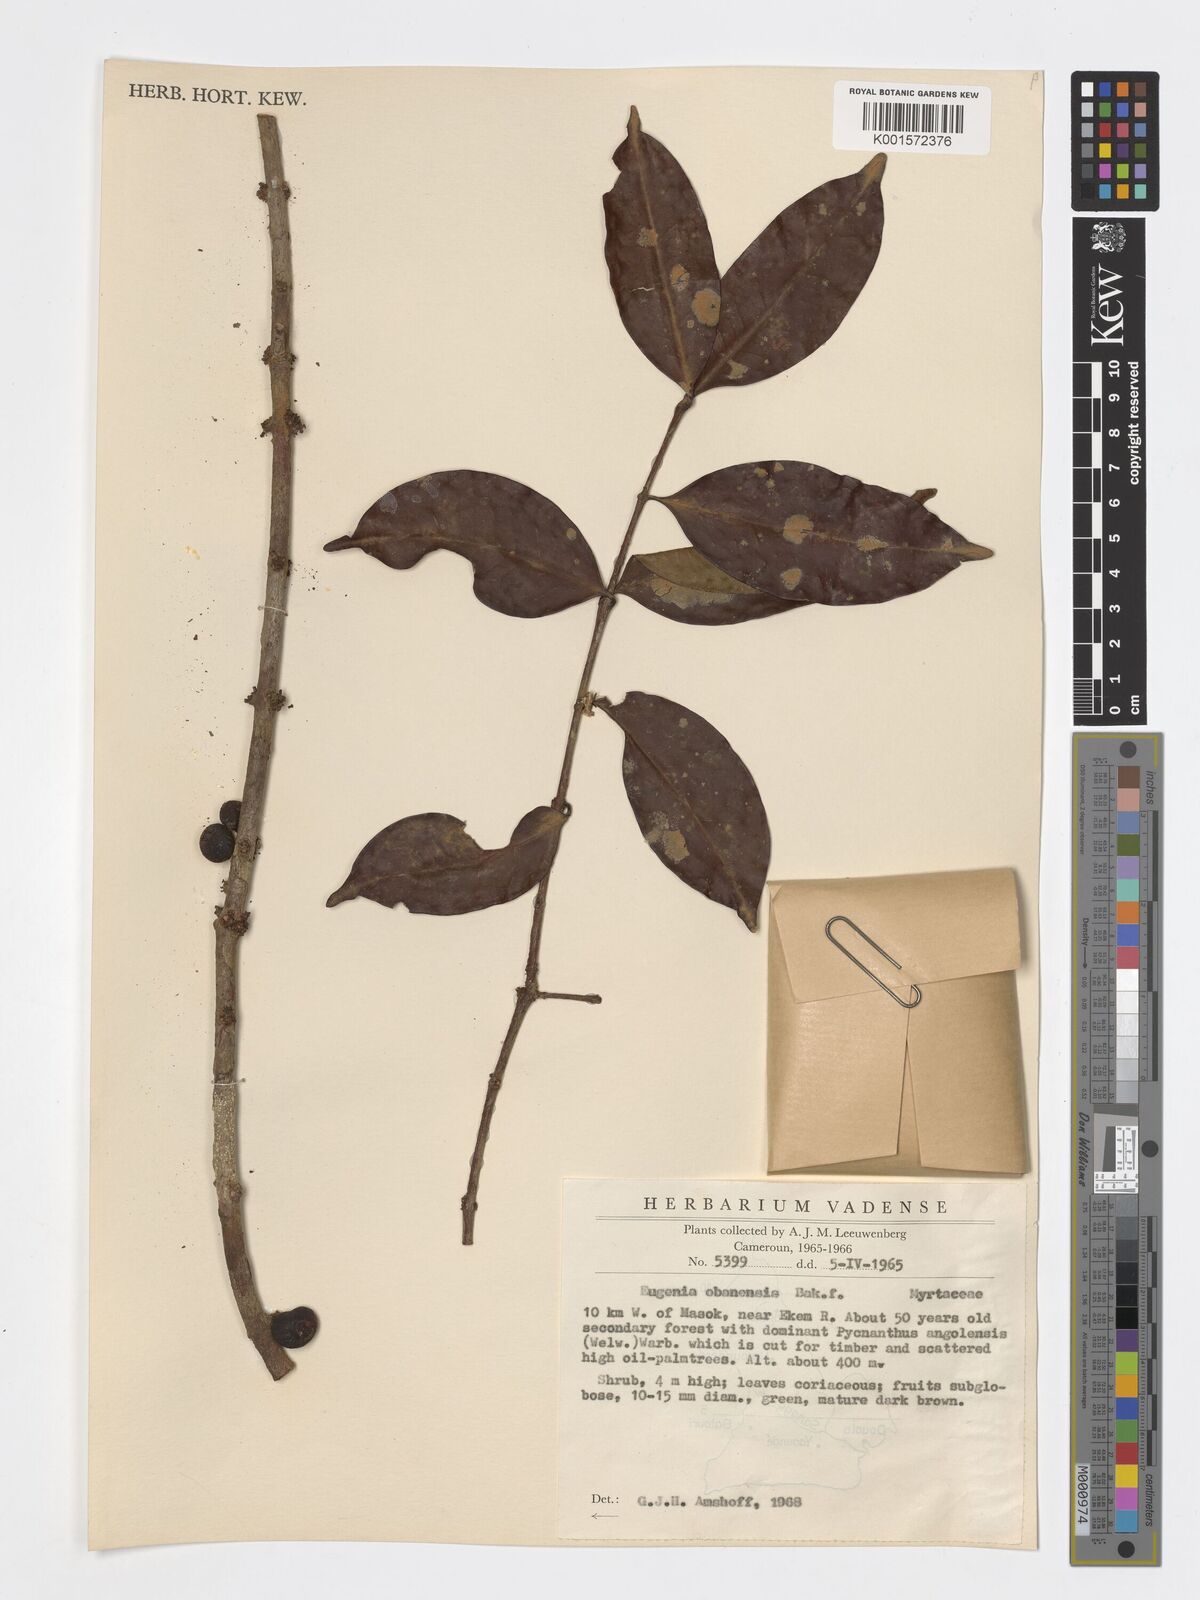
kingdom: Plantae
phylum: Tracheophyta
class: Magnoliopsida
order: Myrtales
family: Myrtaceae
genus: Eugenia
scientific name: Eugenia obanensis
